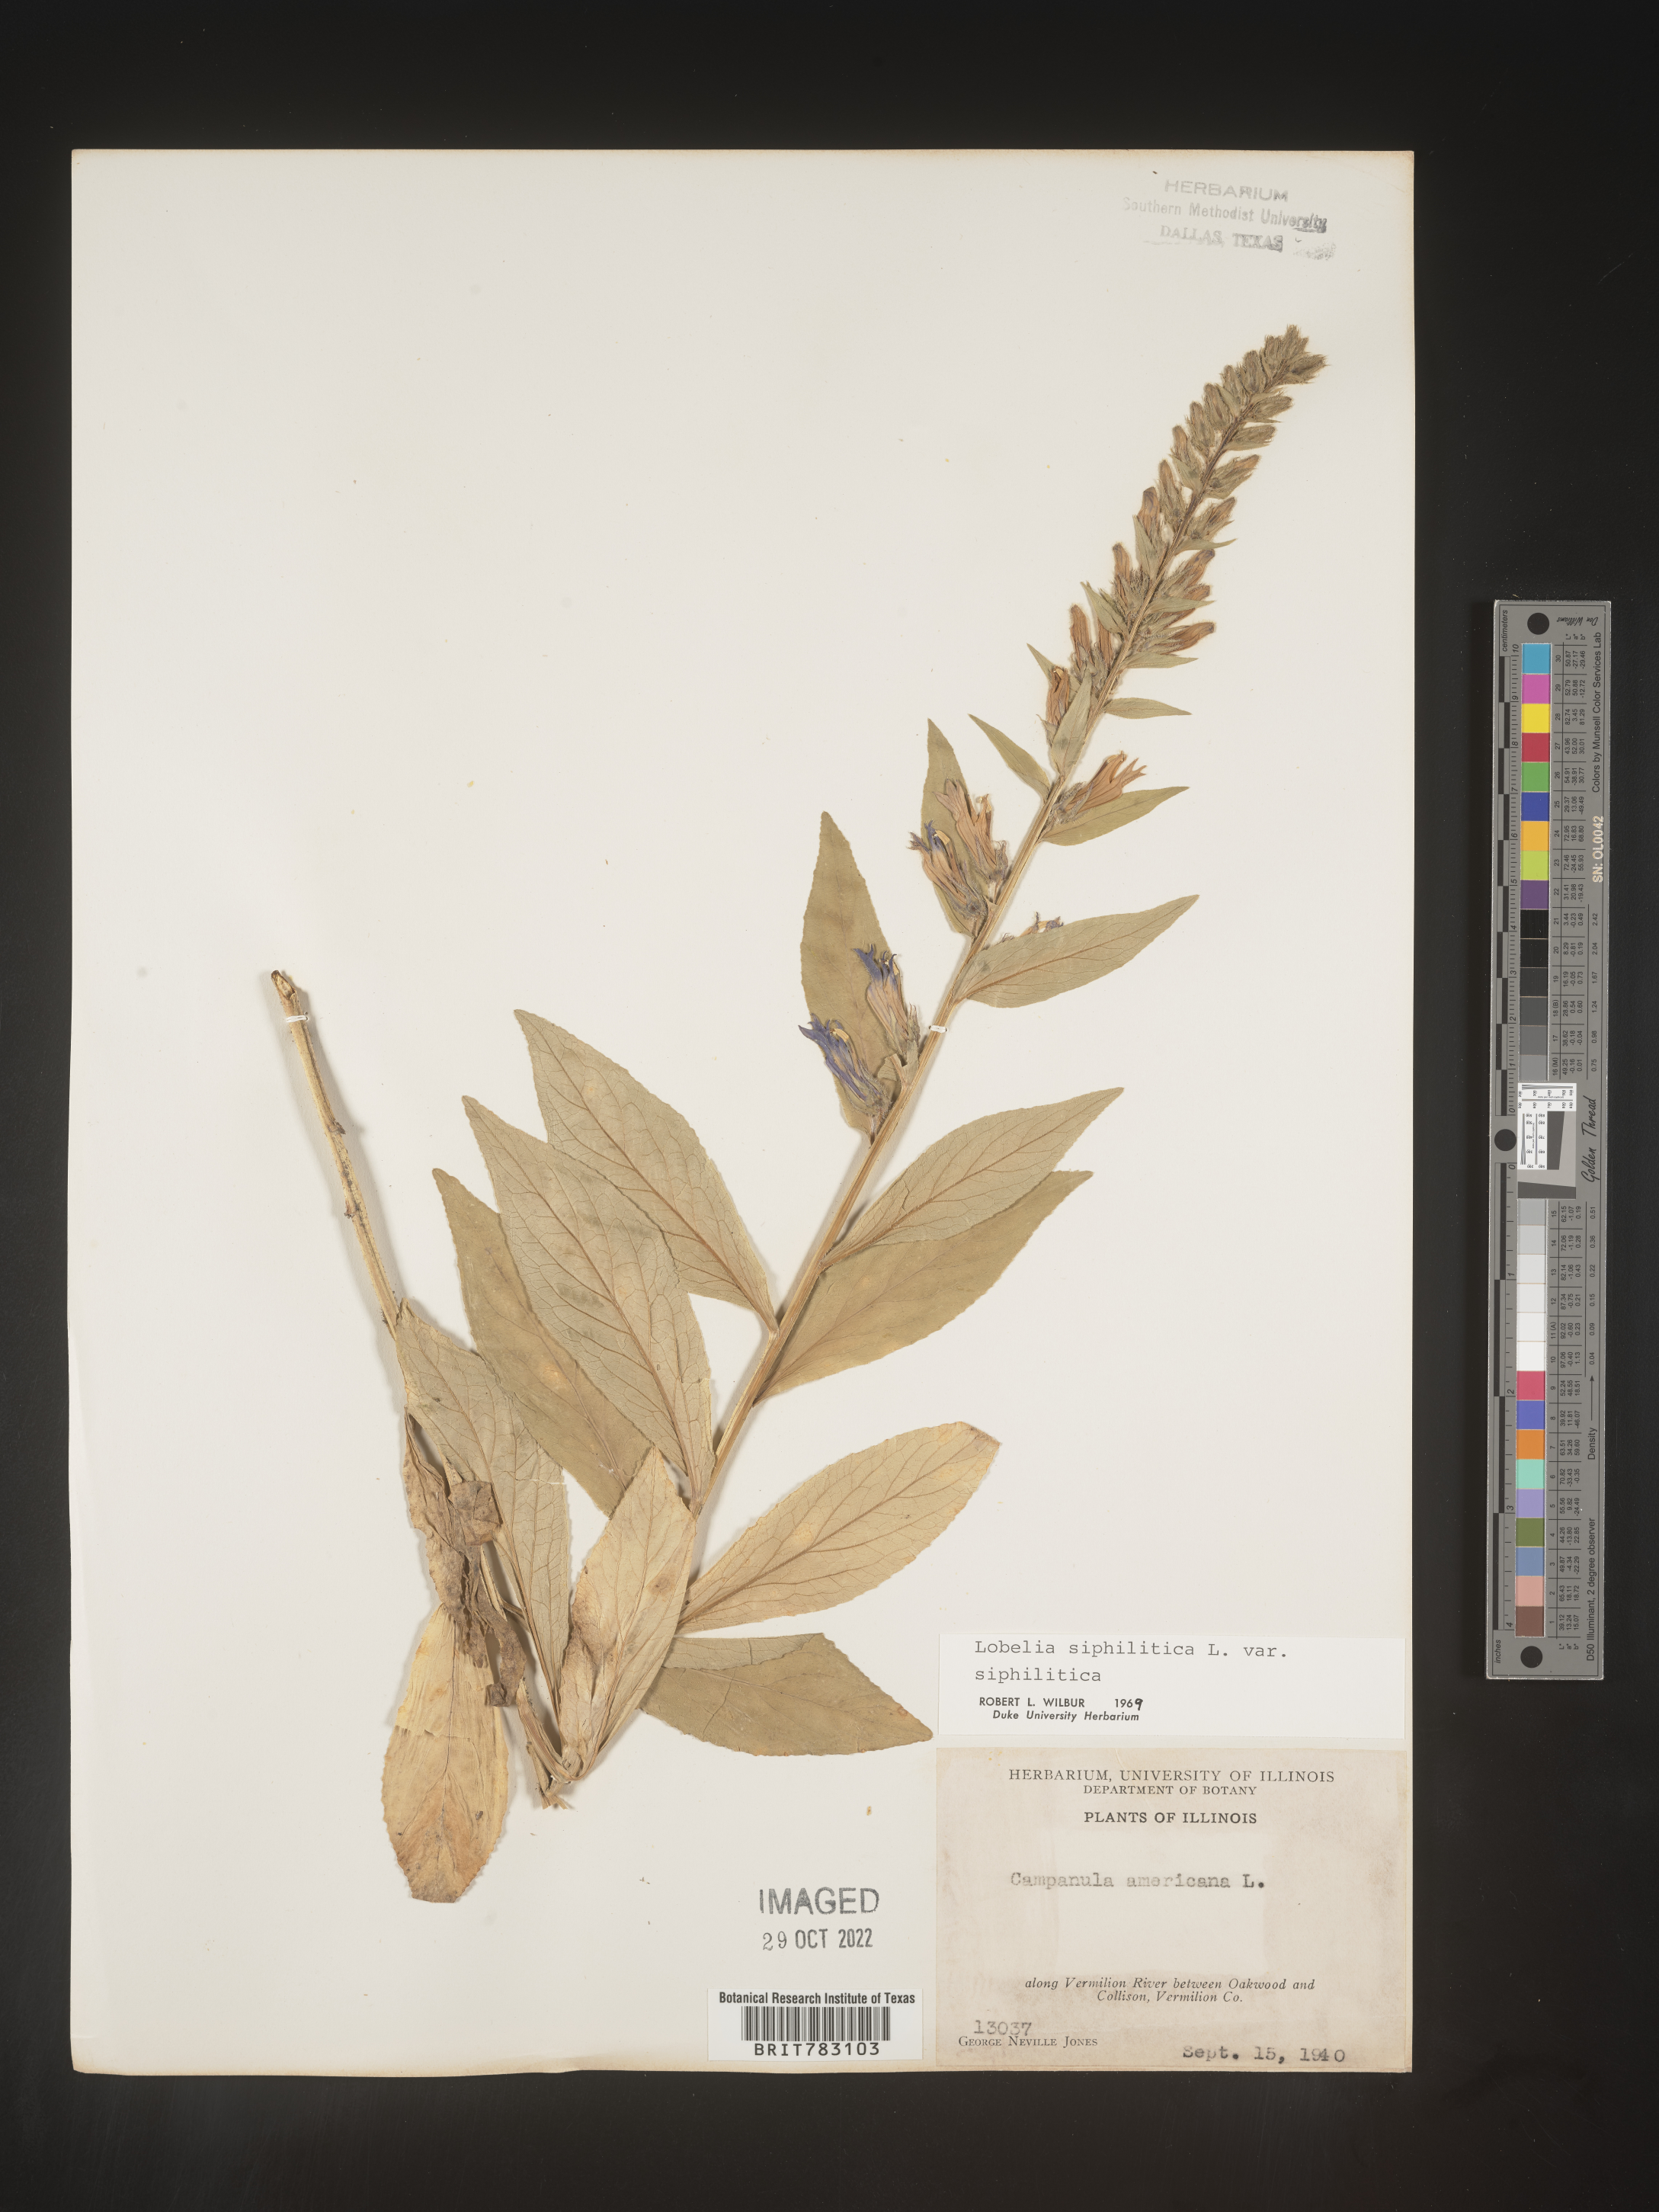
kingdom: Plantae
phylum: Tracheophyta
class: Magnoliopsida
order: Asterales
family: Campanulaceae
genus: Lobelia
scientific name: Lobelia siphilitica
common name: Great lobelia
